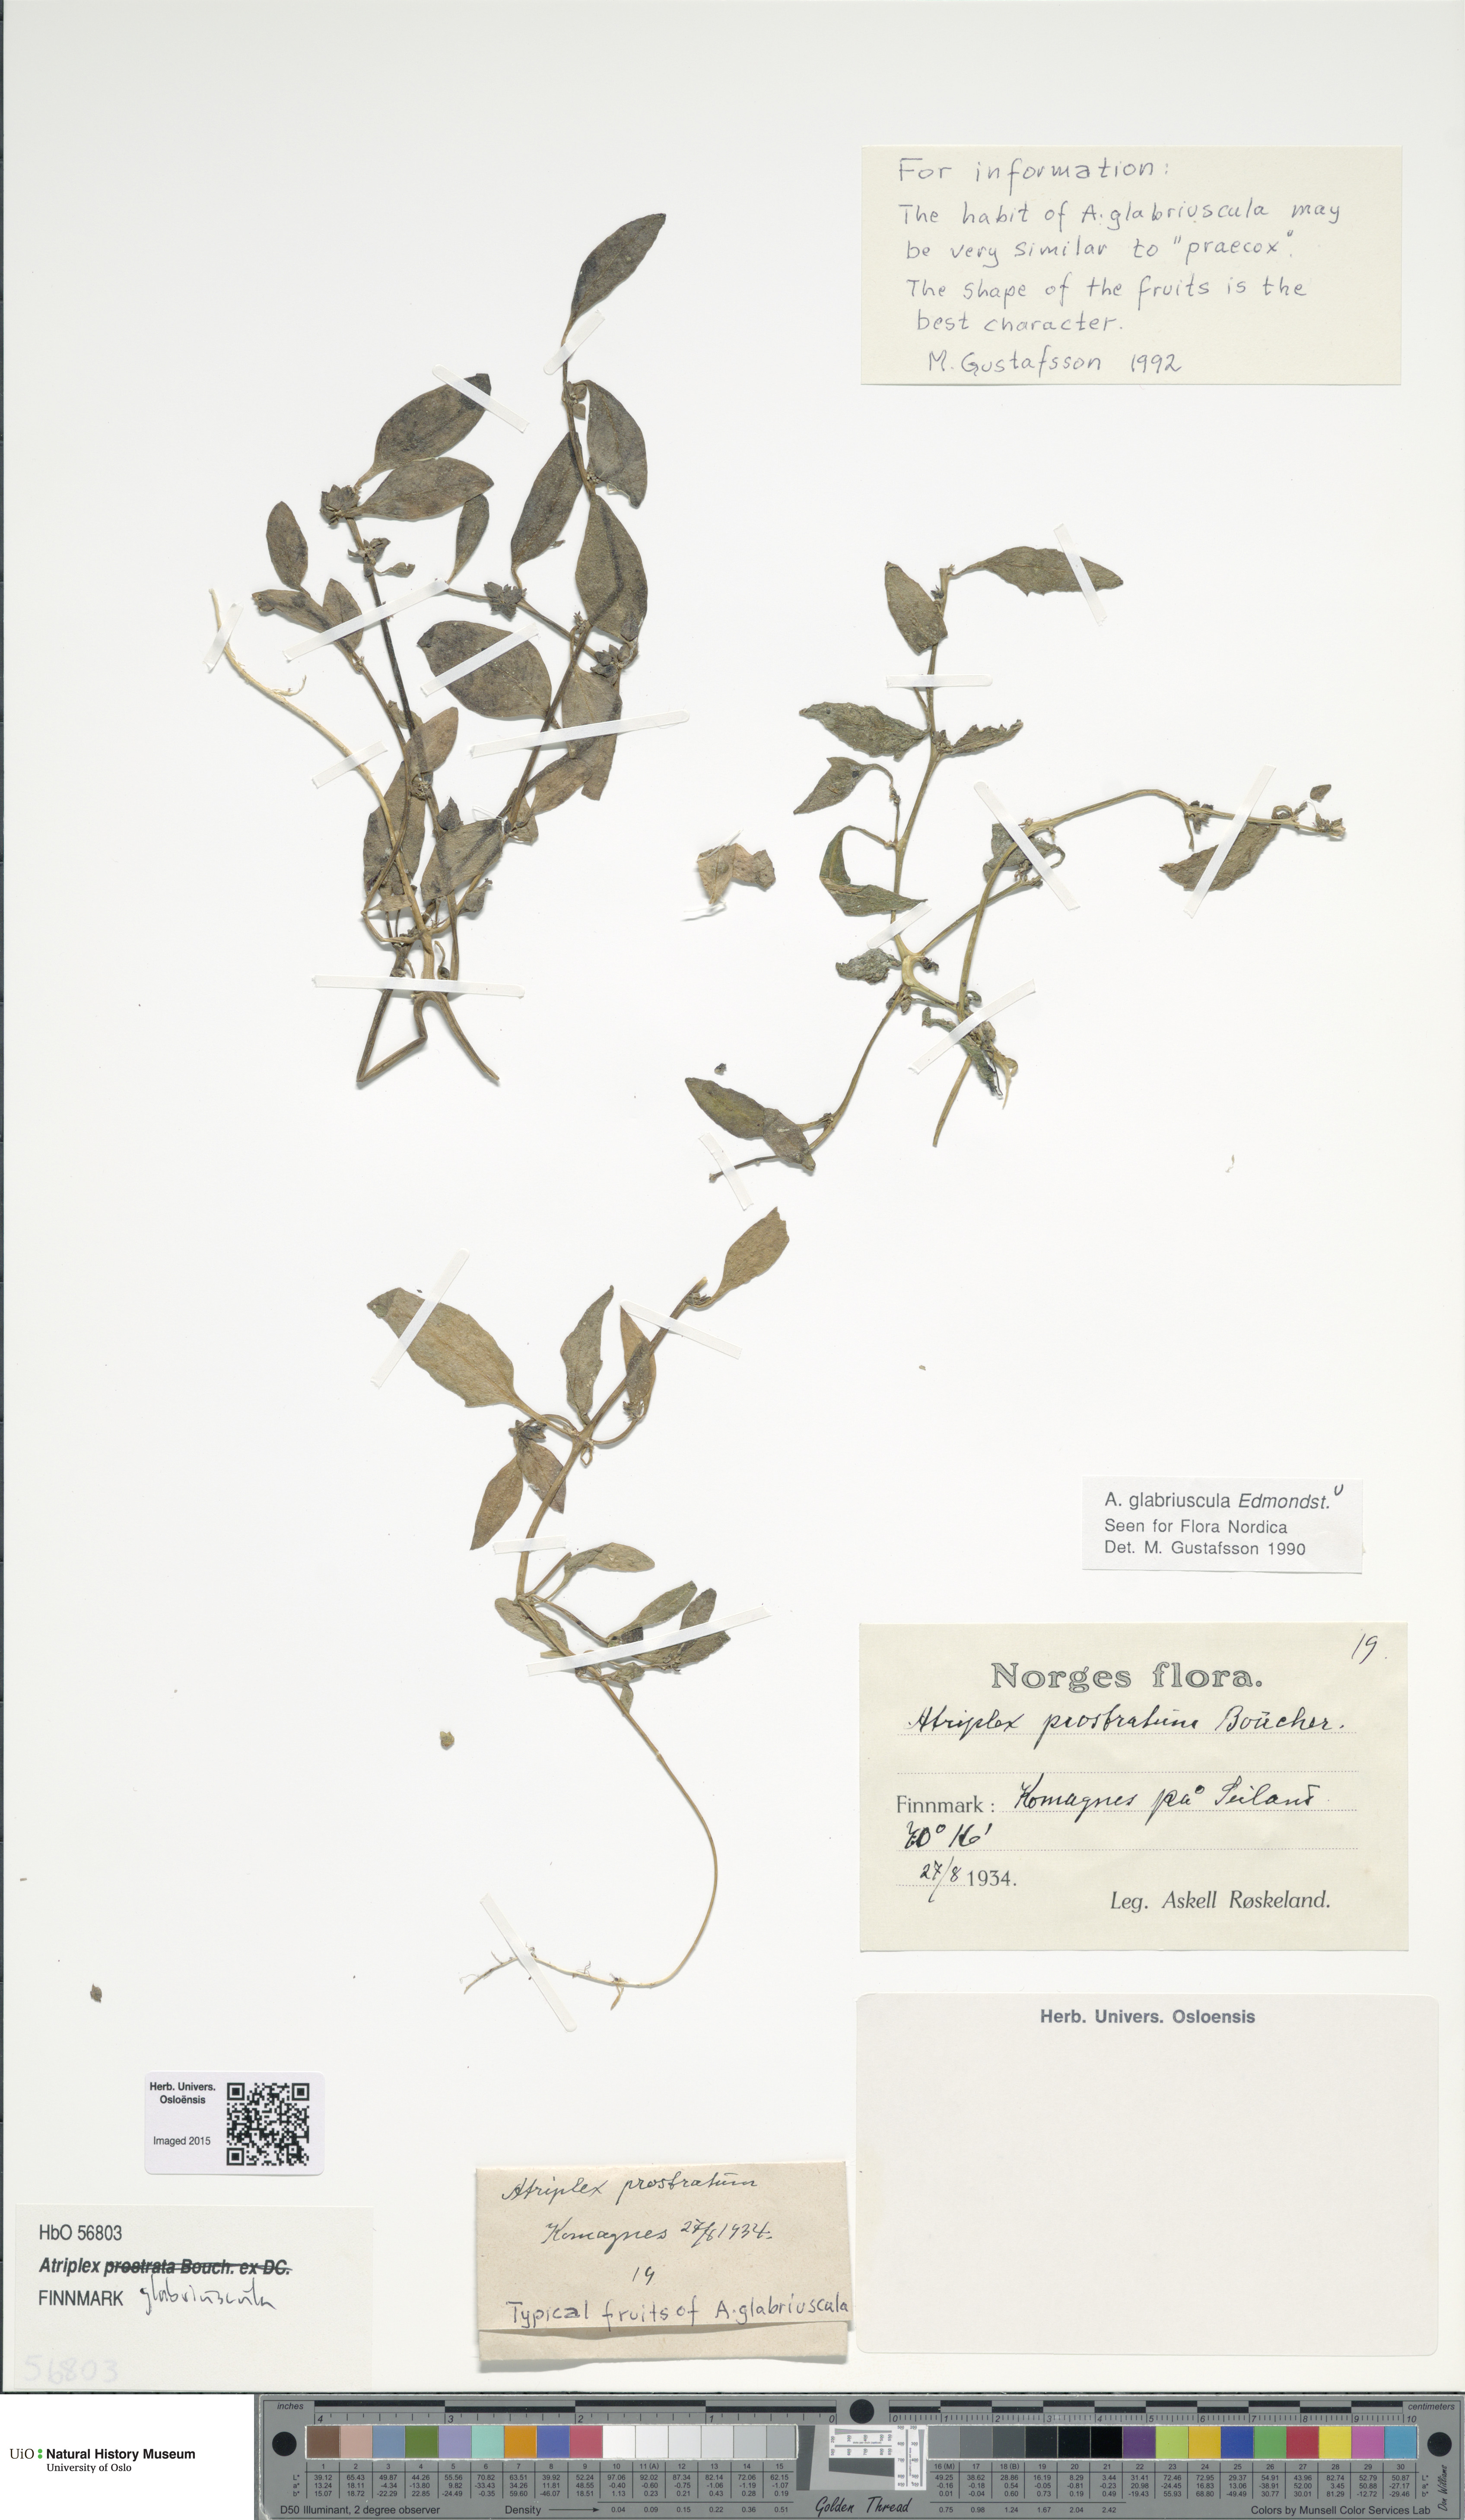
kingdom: Plantae
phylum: Tracheophyta
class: Magnoliopsida
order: Caryophyllales
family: Amaranthaceae
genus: Atriplex
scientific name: Atriplex glabriuscula
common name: Babington's orache
